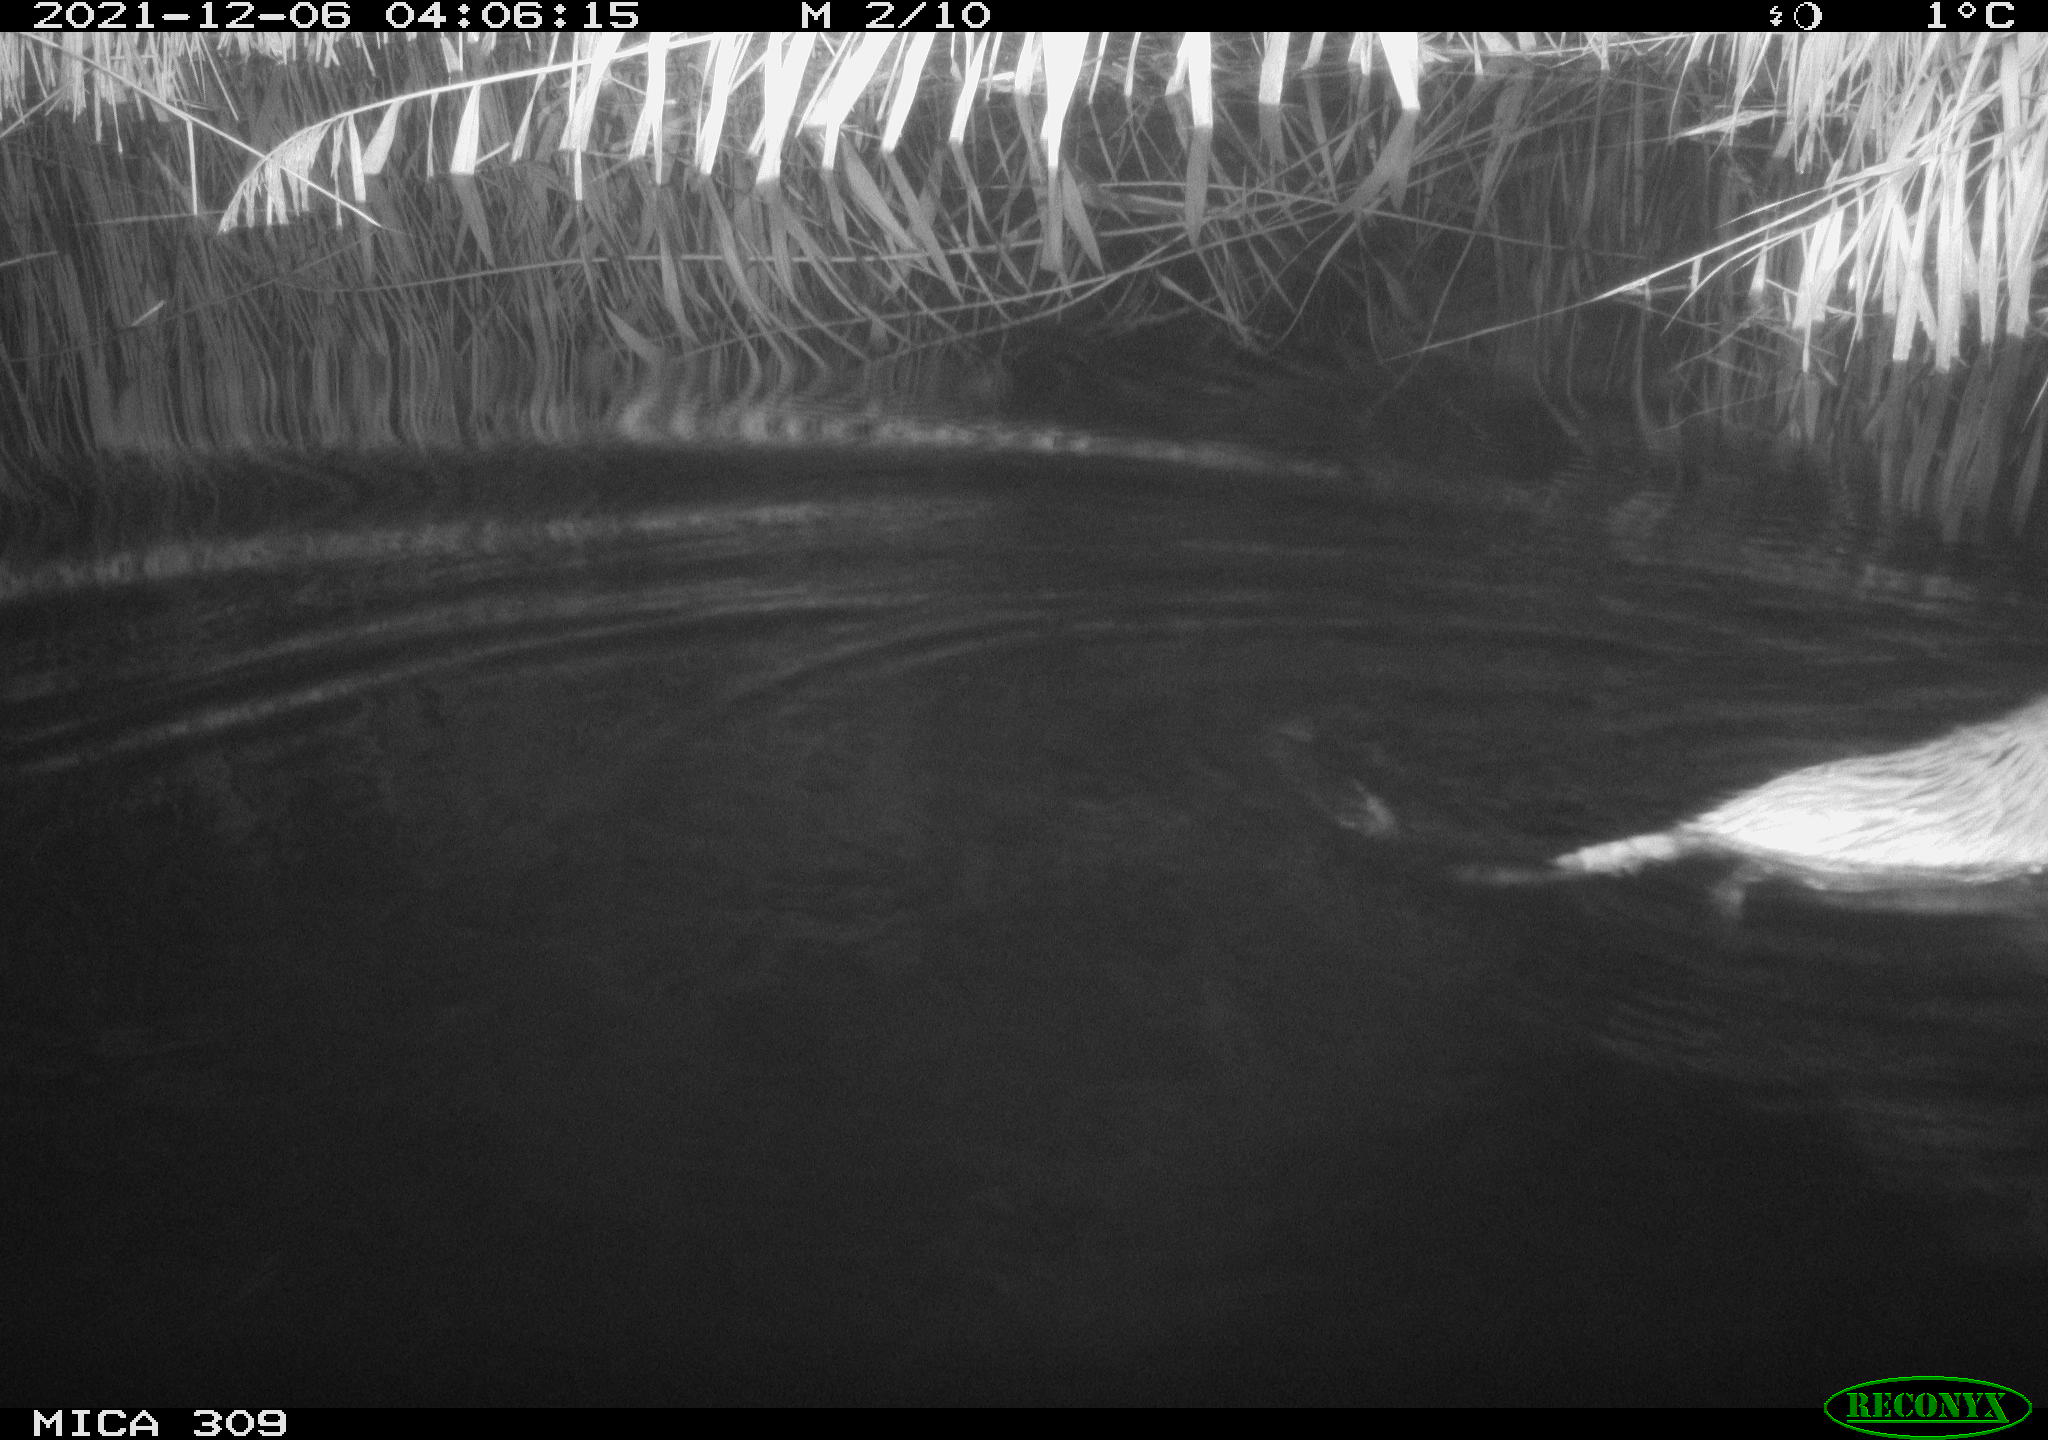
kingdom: Animalia
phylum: Chordata
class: Mammalia
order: Rodentia
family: Cricetidae
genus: Ondatra
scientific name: Ondatra zibethicus
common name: Muskrat
